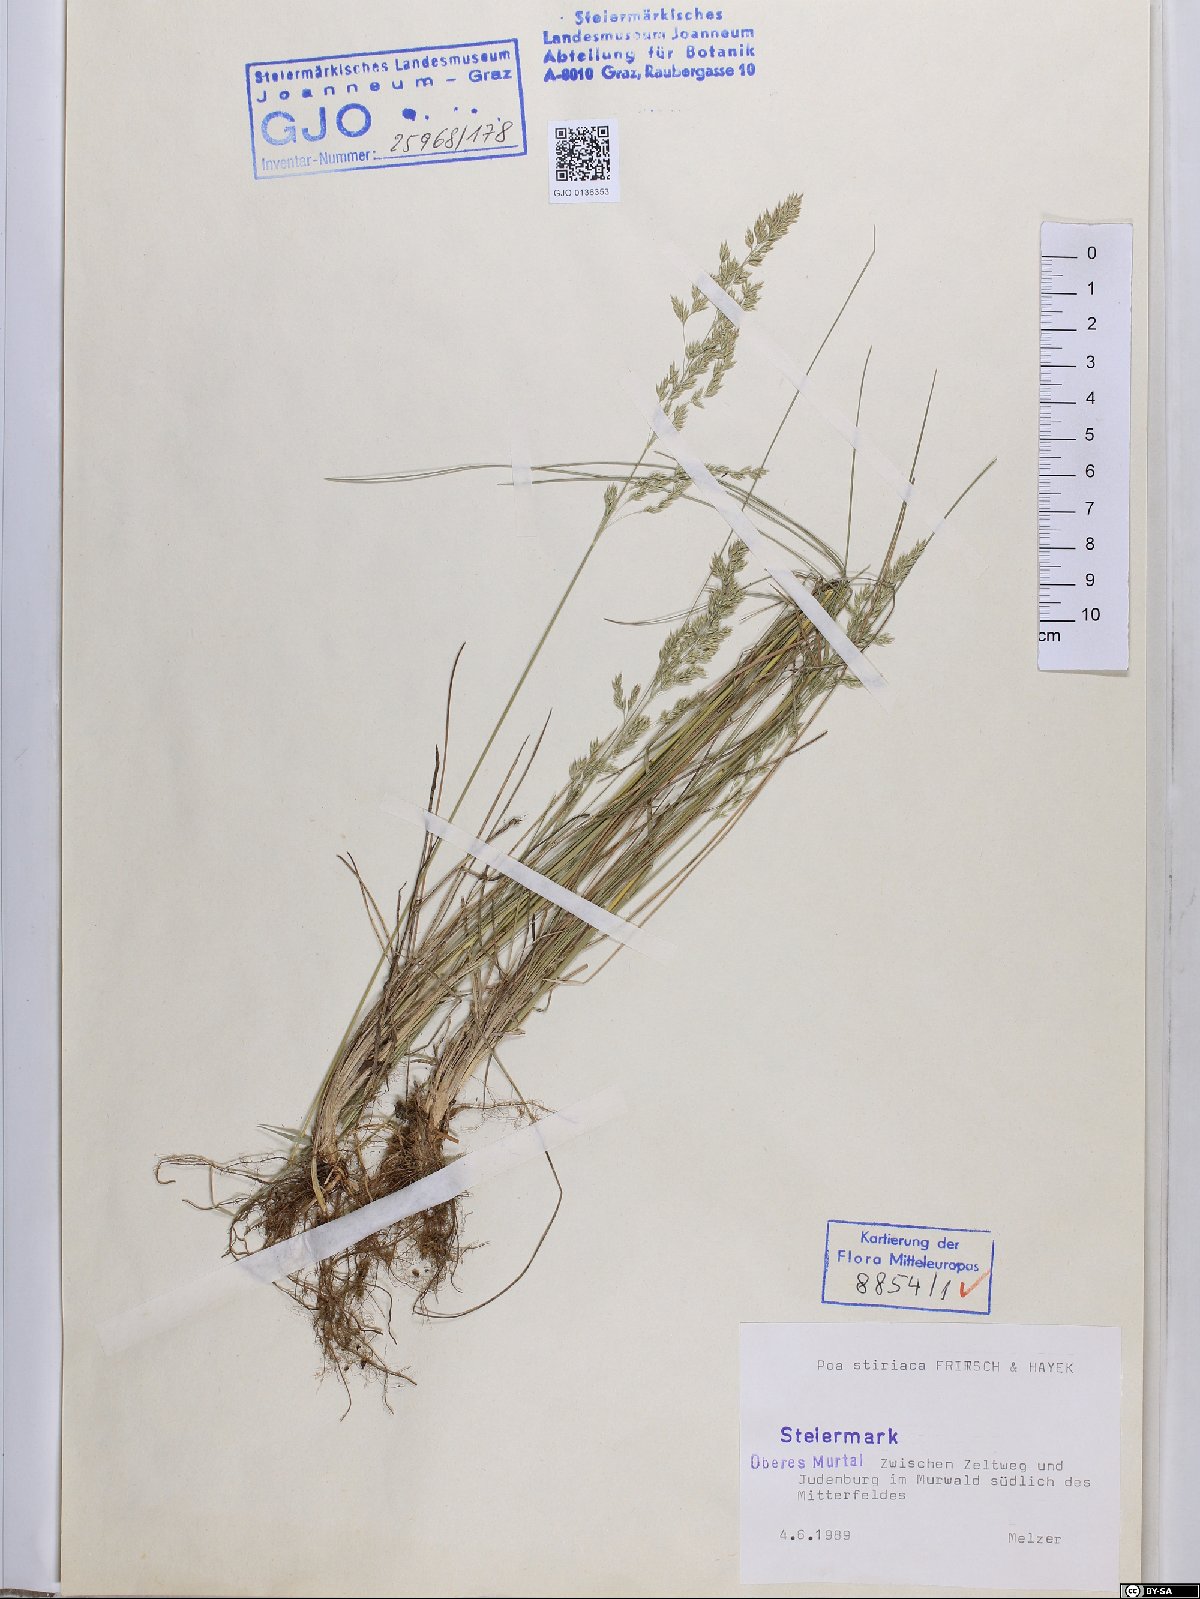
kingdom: Plantae
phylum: Tracheophyta
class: Liliopsida
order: Poales
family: Poaceae
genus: Poa
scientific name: Poa stiriaca
